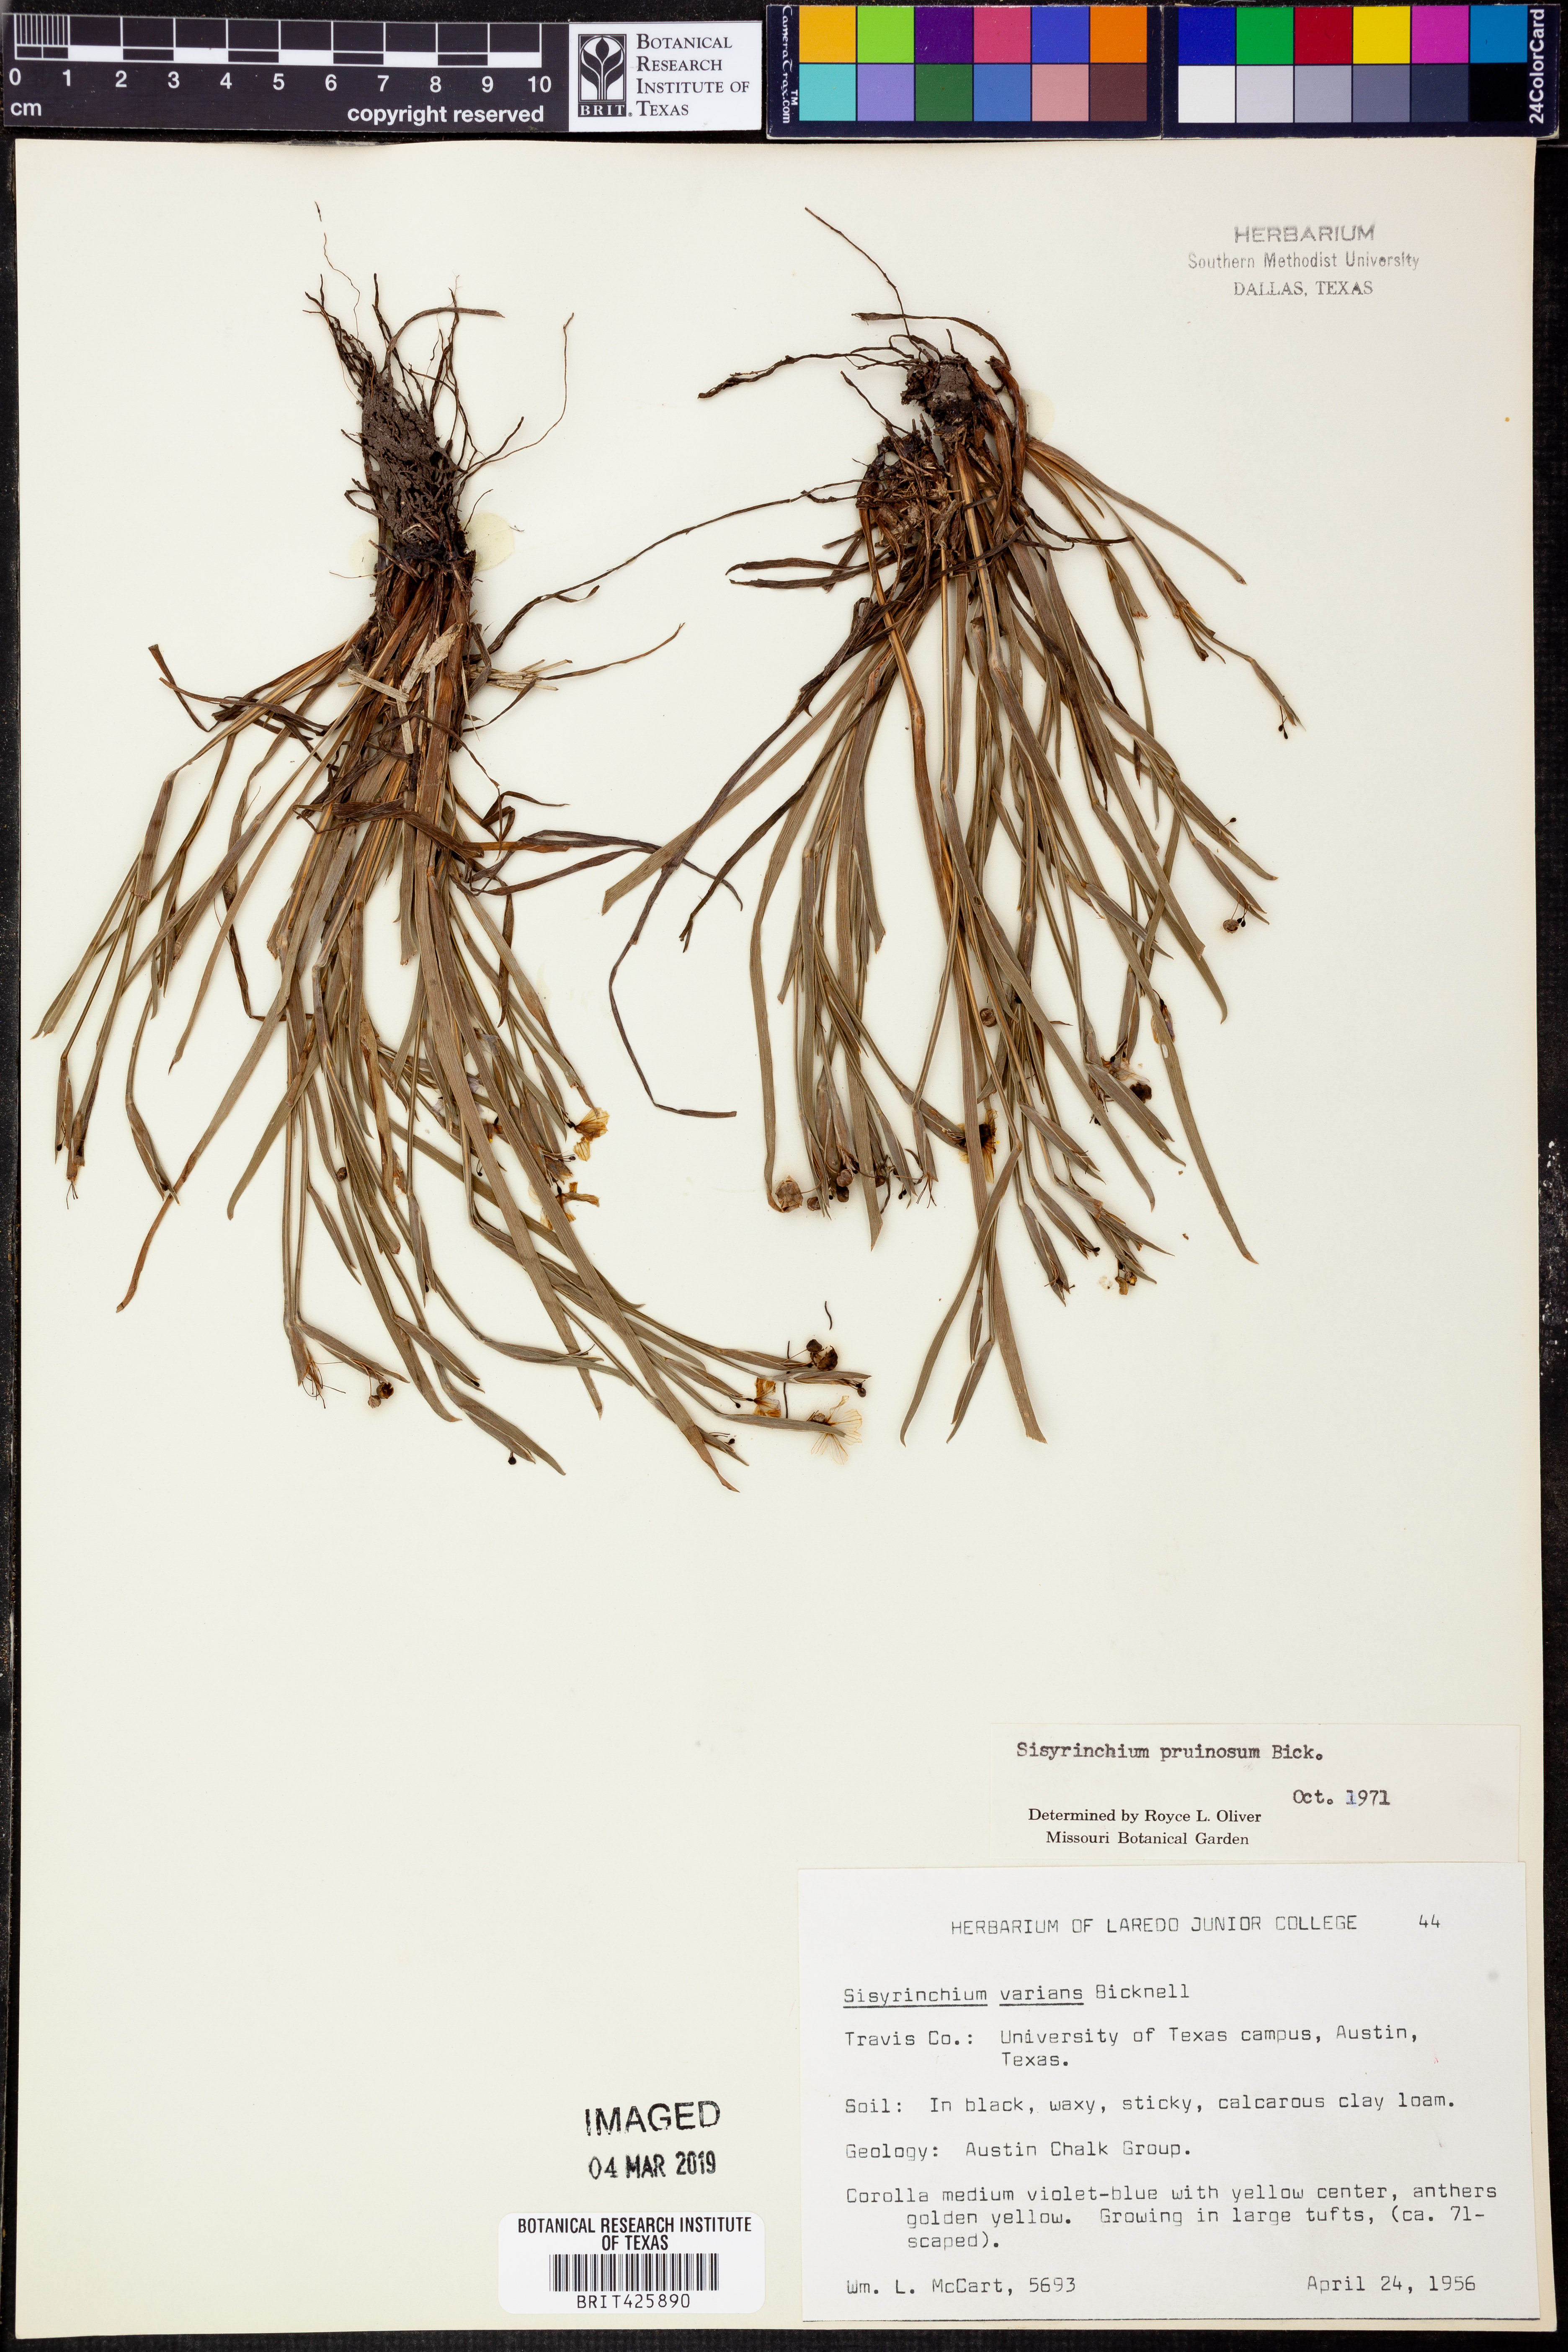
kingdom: Plantae
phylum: Tracheophyta
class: Liliopsida
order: Asparagales
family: Iridaceae
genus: Sisyrinchium
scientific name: Sisyrinchium pruinosum
